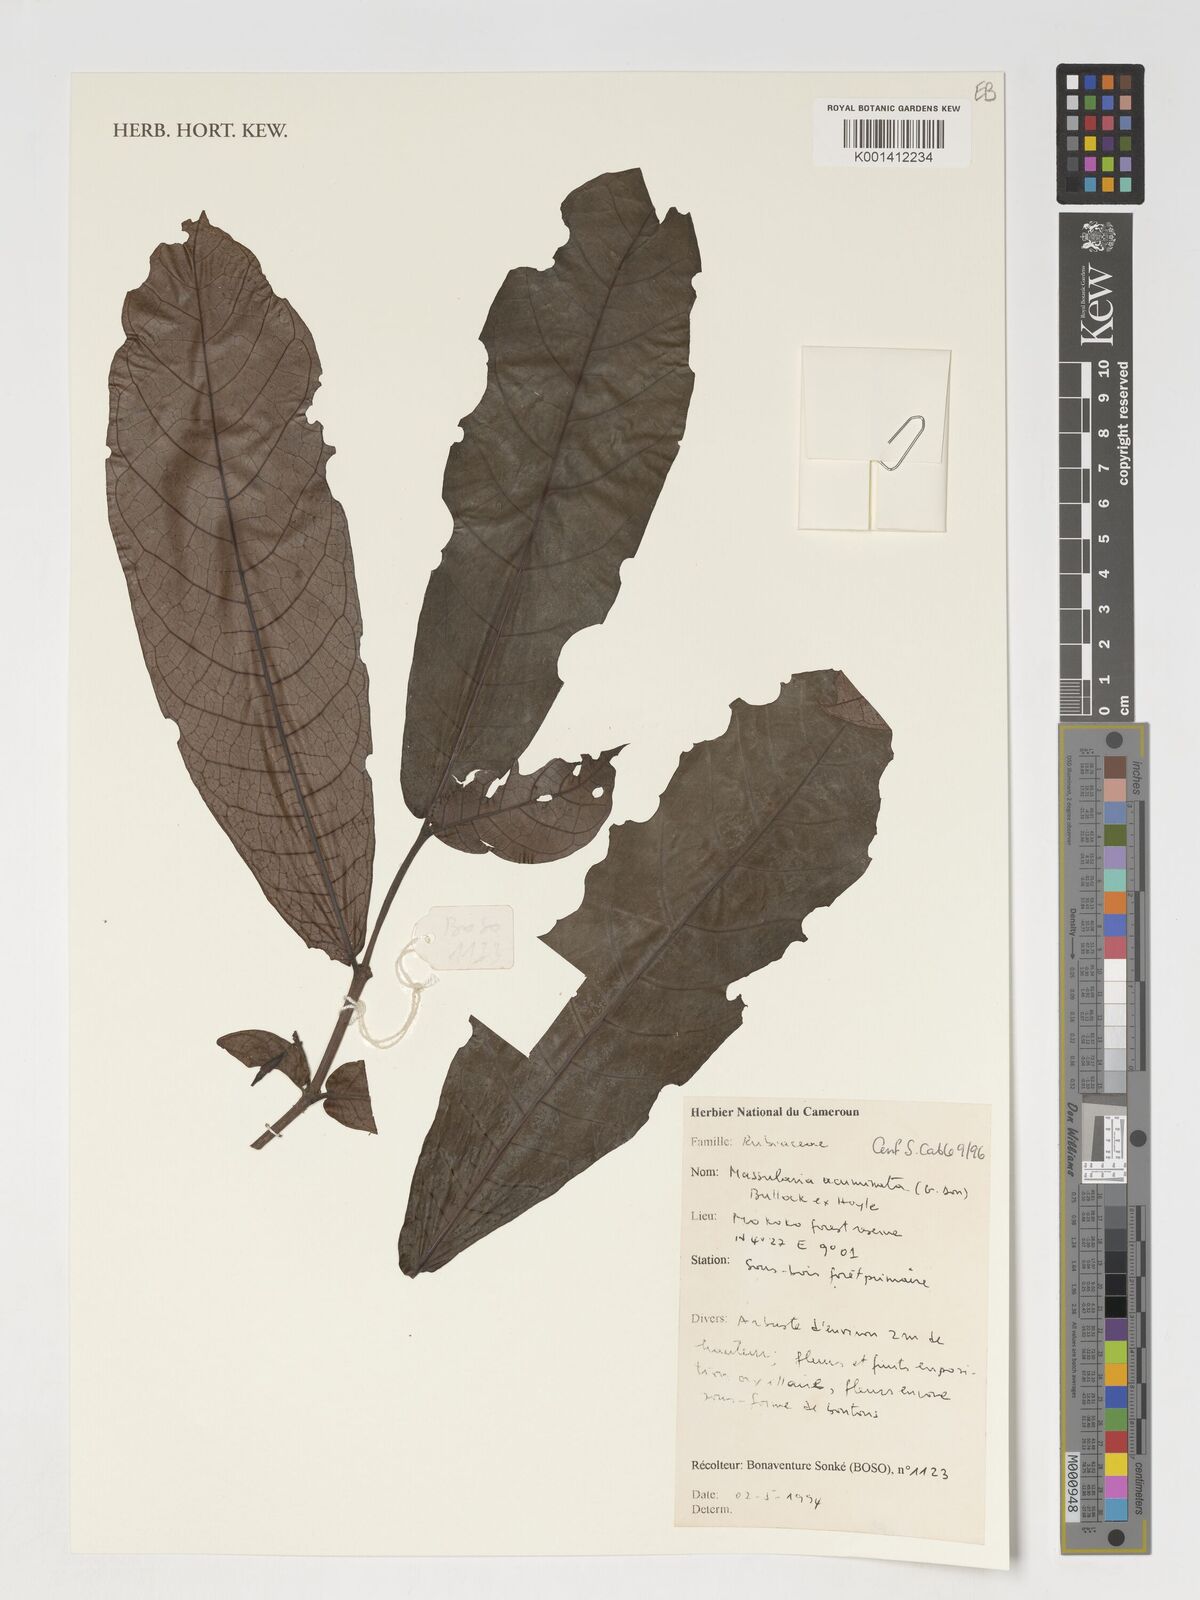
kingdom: Plantae
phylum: Tracheophyta
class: Magnoliopsida
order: Gentianales
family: Rubiaceae
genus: Massularia
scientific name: Massularia acuminata
